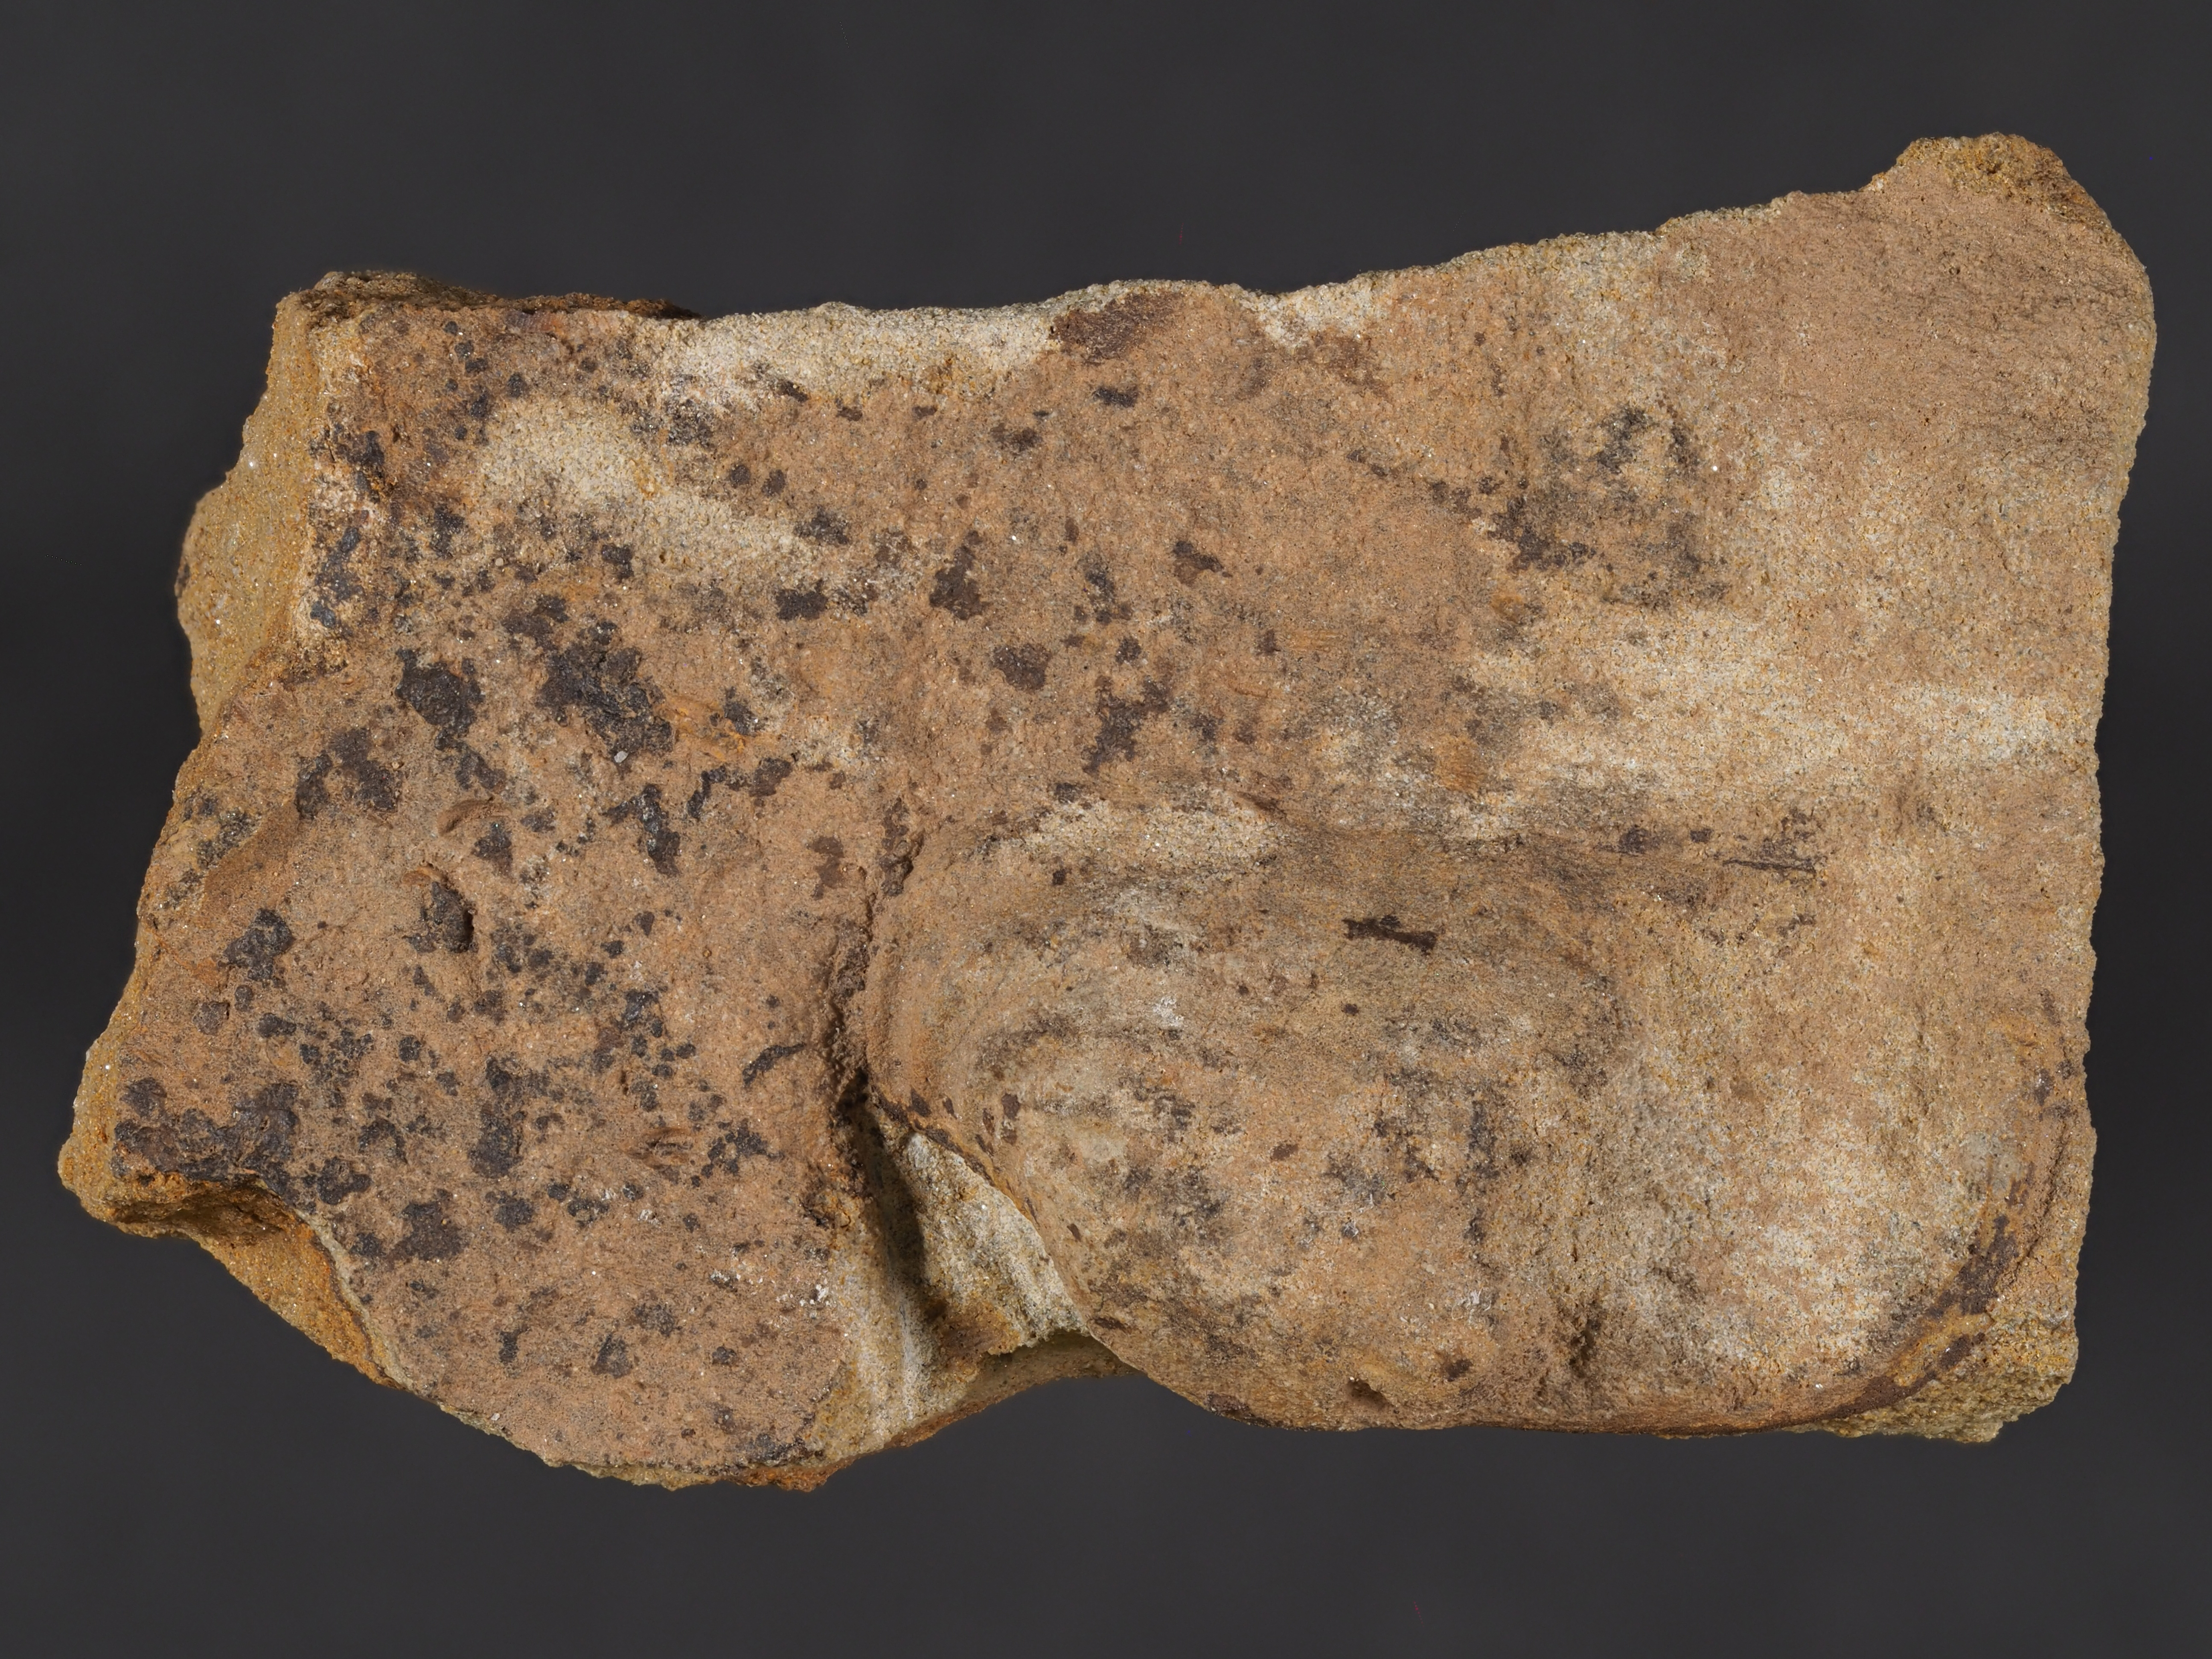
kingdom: Animalia
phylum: Mollusca
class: Bivalvia
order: Nuculanida
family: Malletiidae
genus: Palaeoneilo
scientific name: Palaeoneilo
